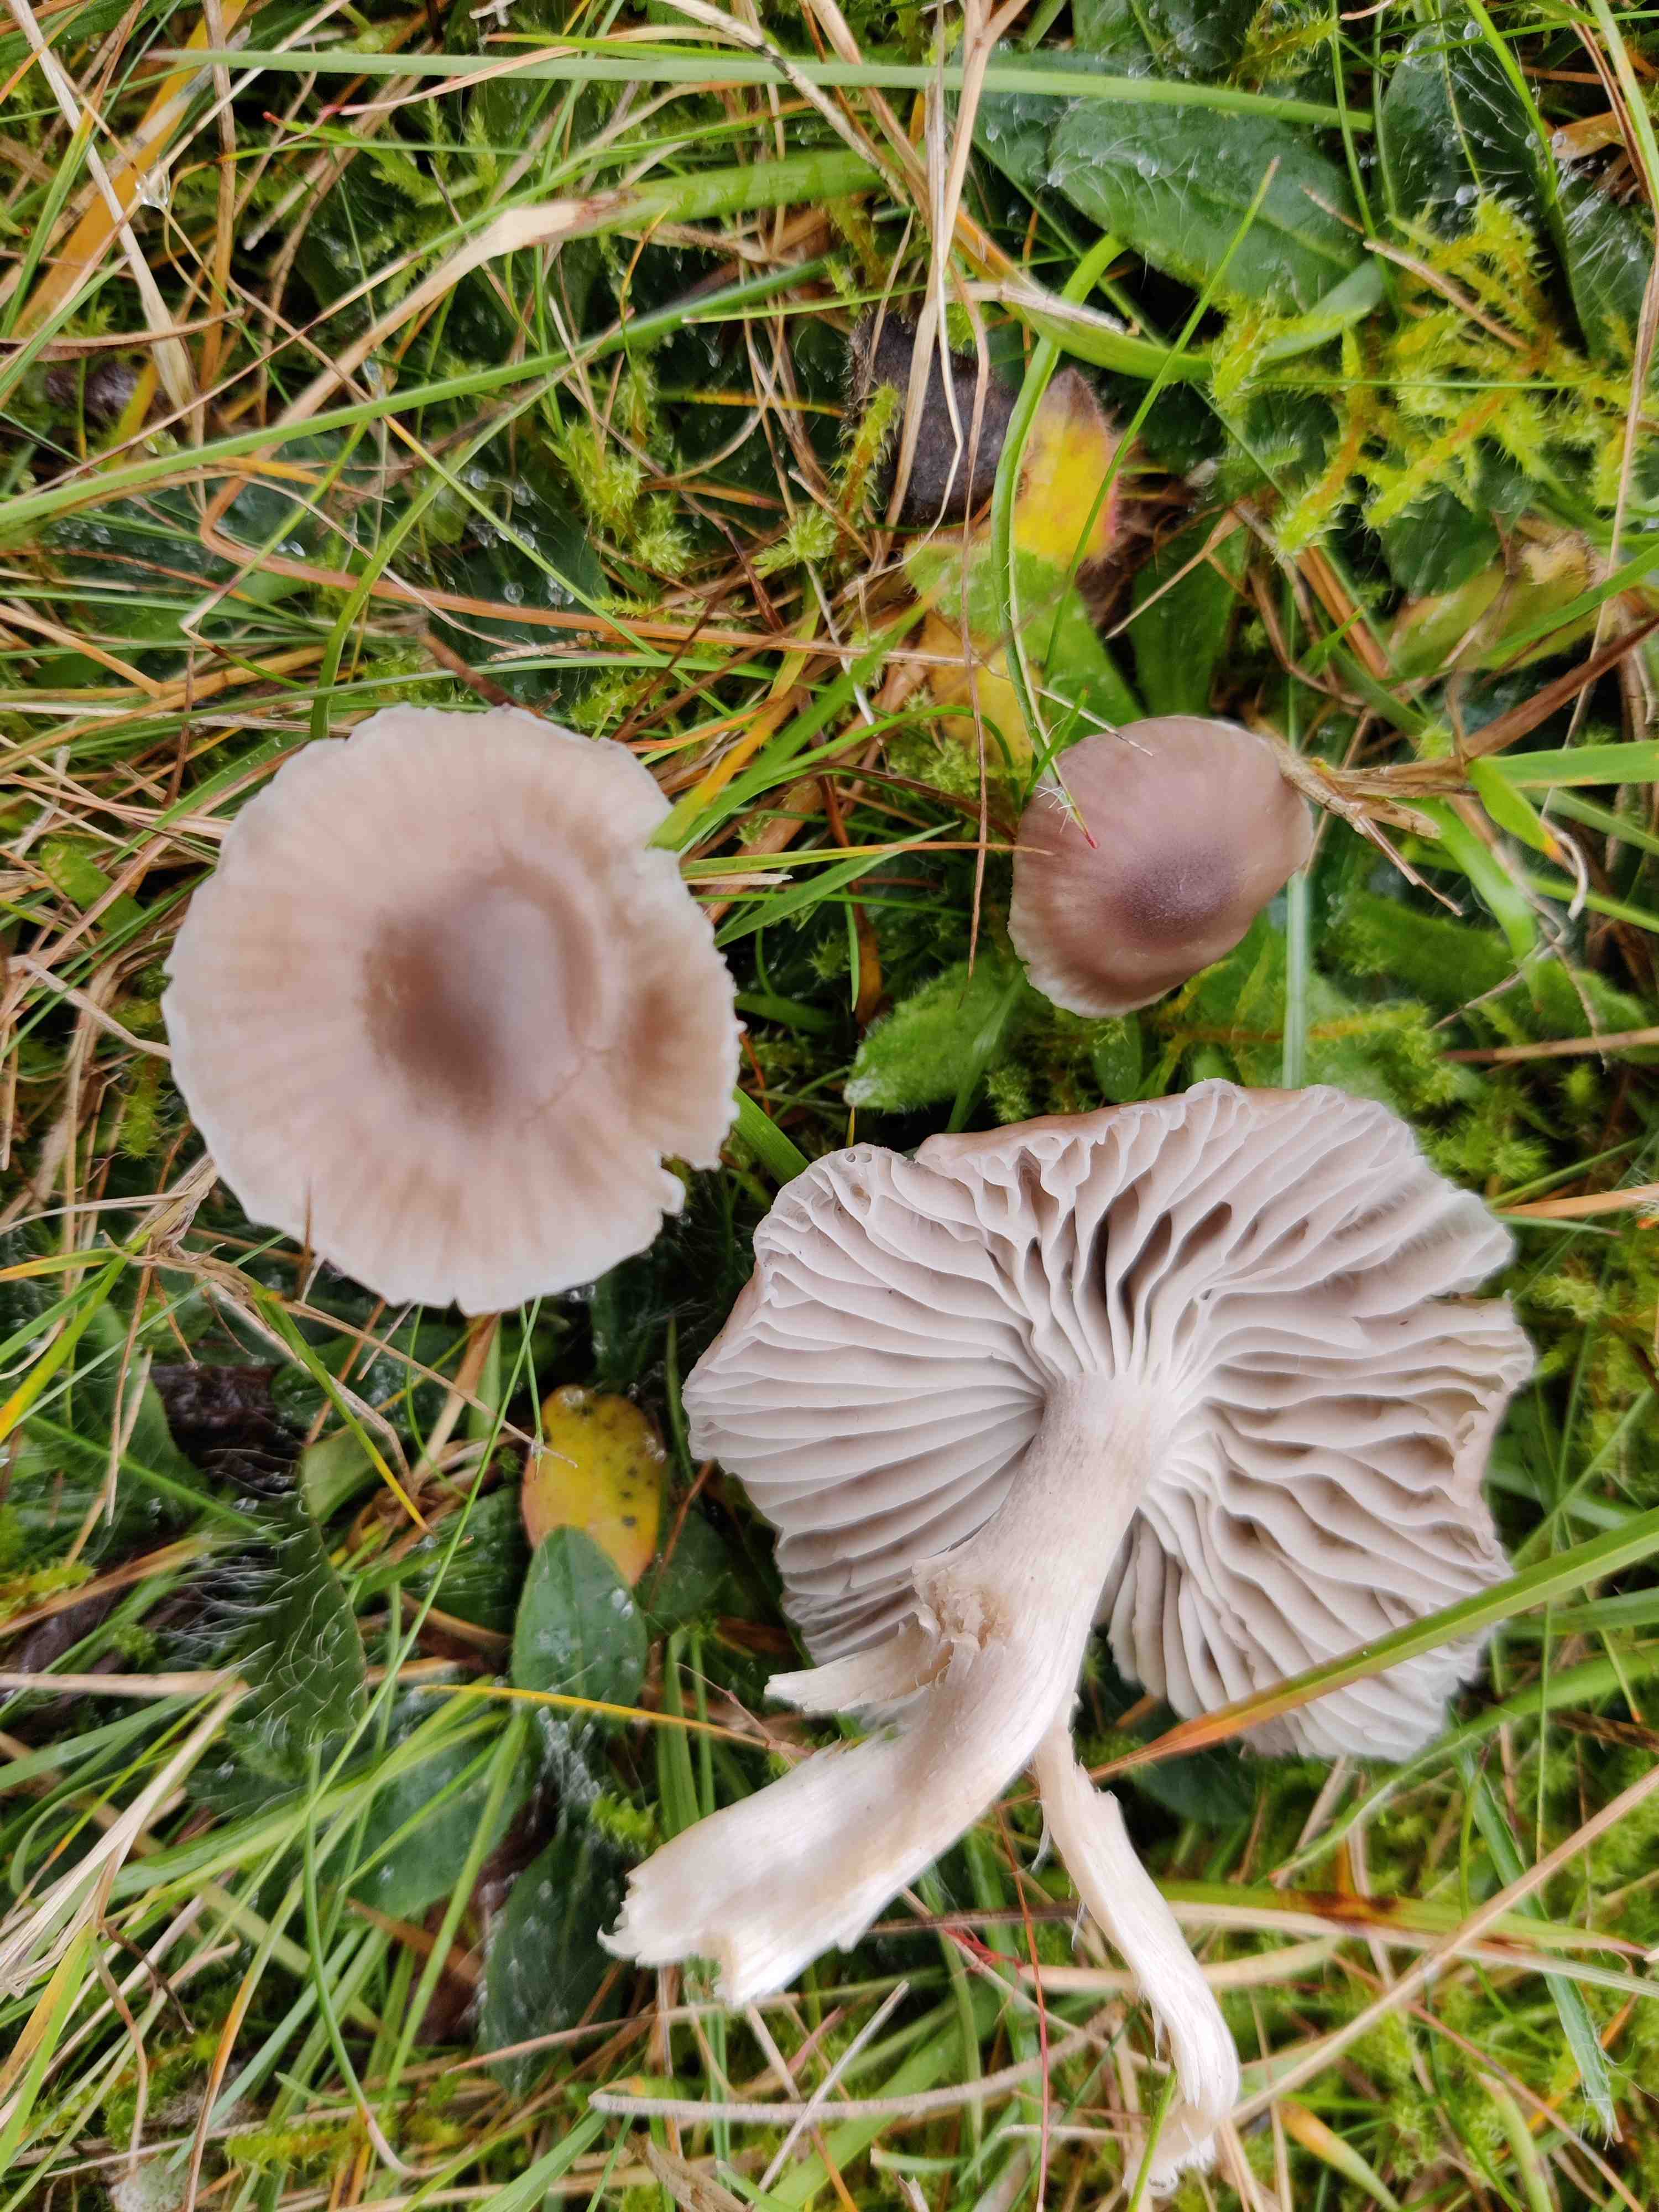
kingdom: Fungi
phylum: Basidiomycota
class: Agaricomycetes
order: Agaricales
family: Hygrophoraceae
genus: Cuphophyllus
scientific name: Cuphophyllus colemannianus
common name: rødbrun vokshat
